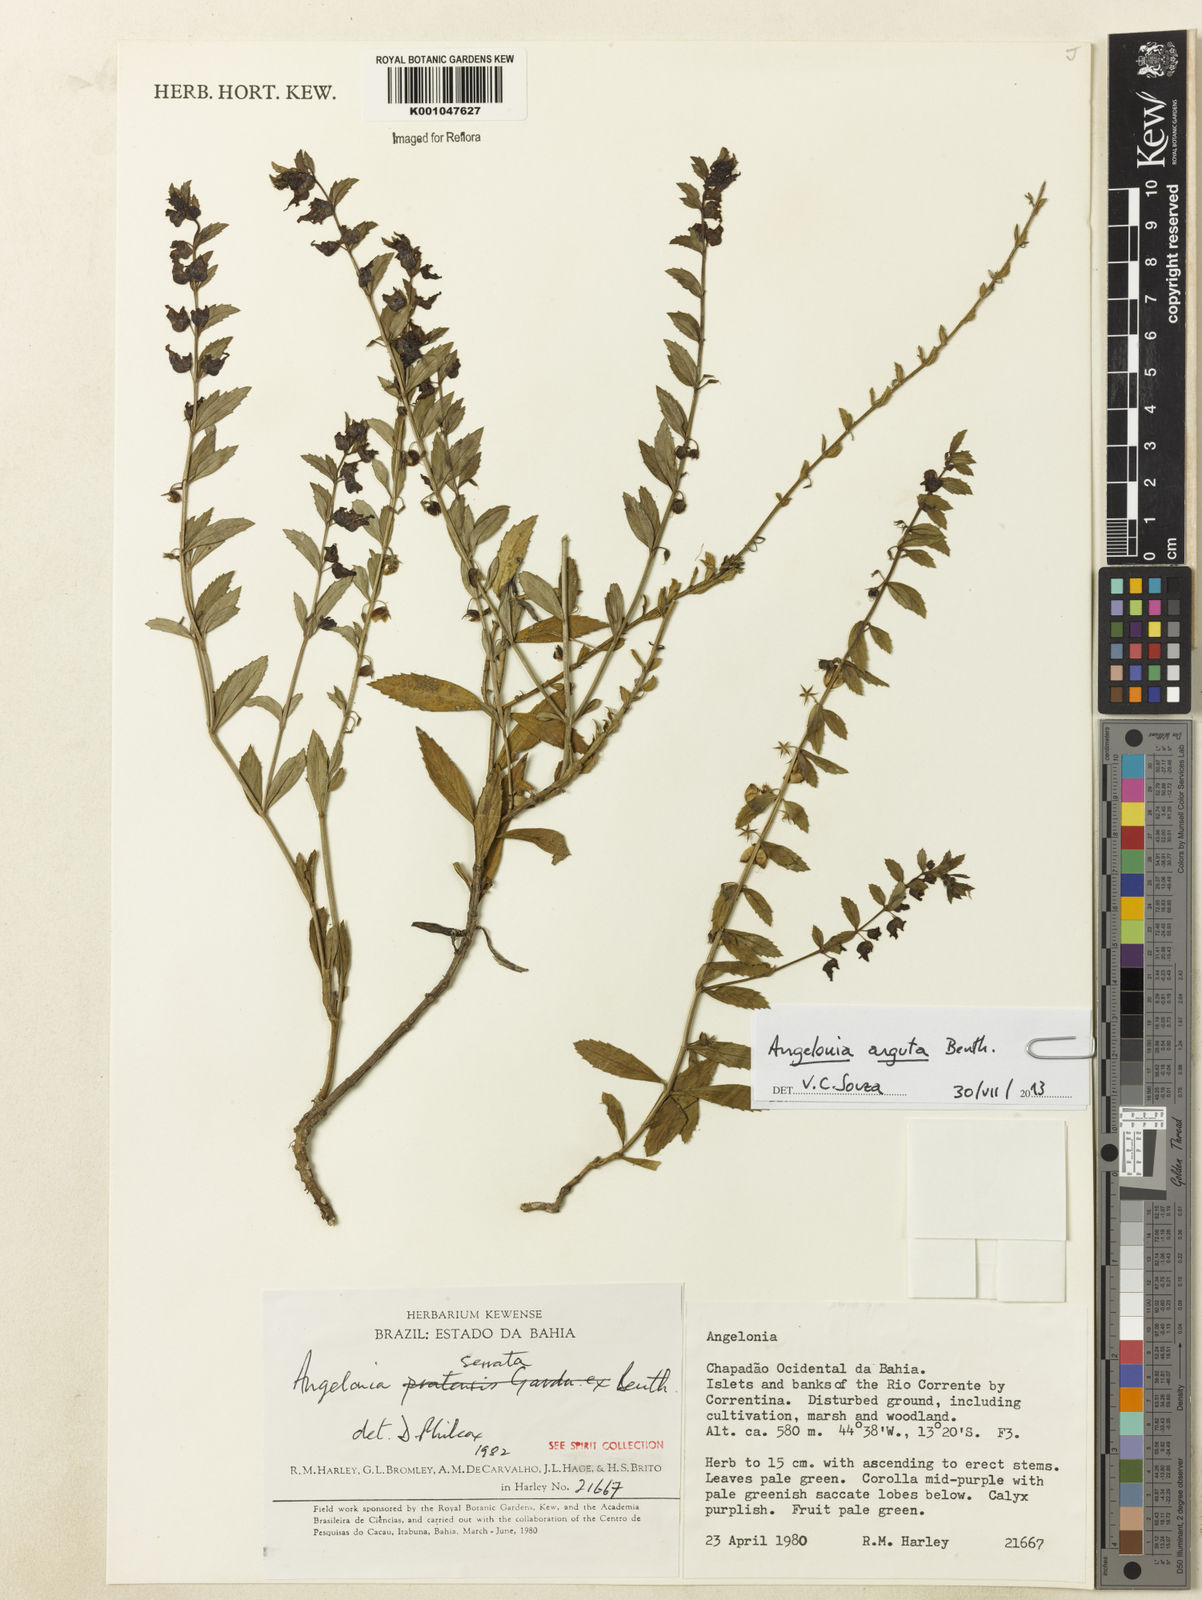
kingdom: Plantae
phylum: Tracheophyta
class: Magnoliopsida
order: Lamiales
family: Plantaginaceae
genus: Angelonia
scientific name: Angelonia arguta
